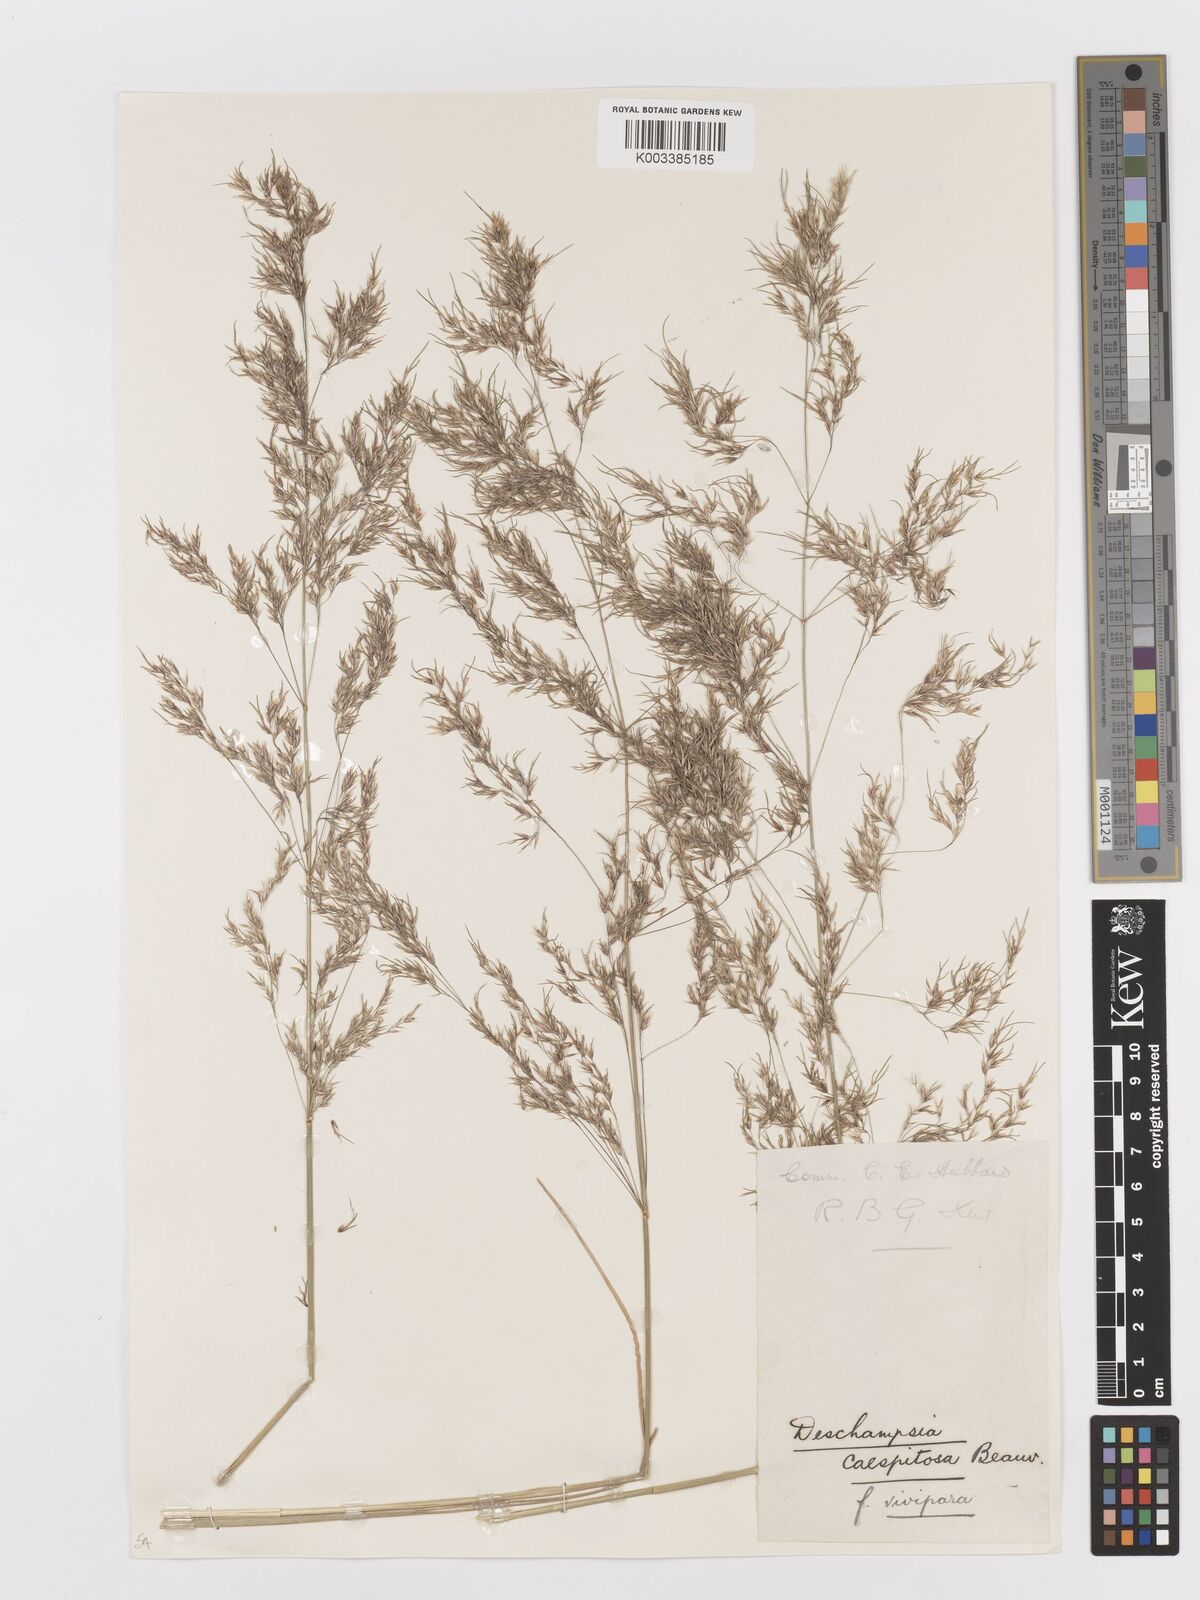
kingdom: Plantae
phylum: Tracheophyta
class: Liliopsida
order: Poales
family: Poaceae
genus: Deschampsia
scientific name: Deschampsia cespitosa
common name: Tufted hair-grass
